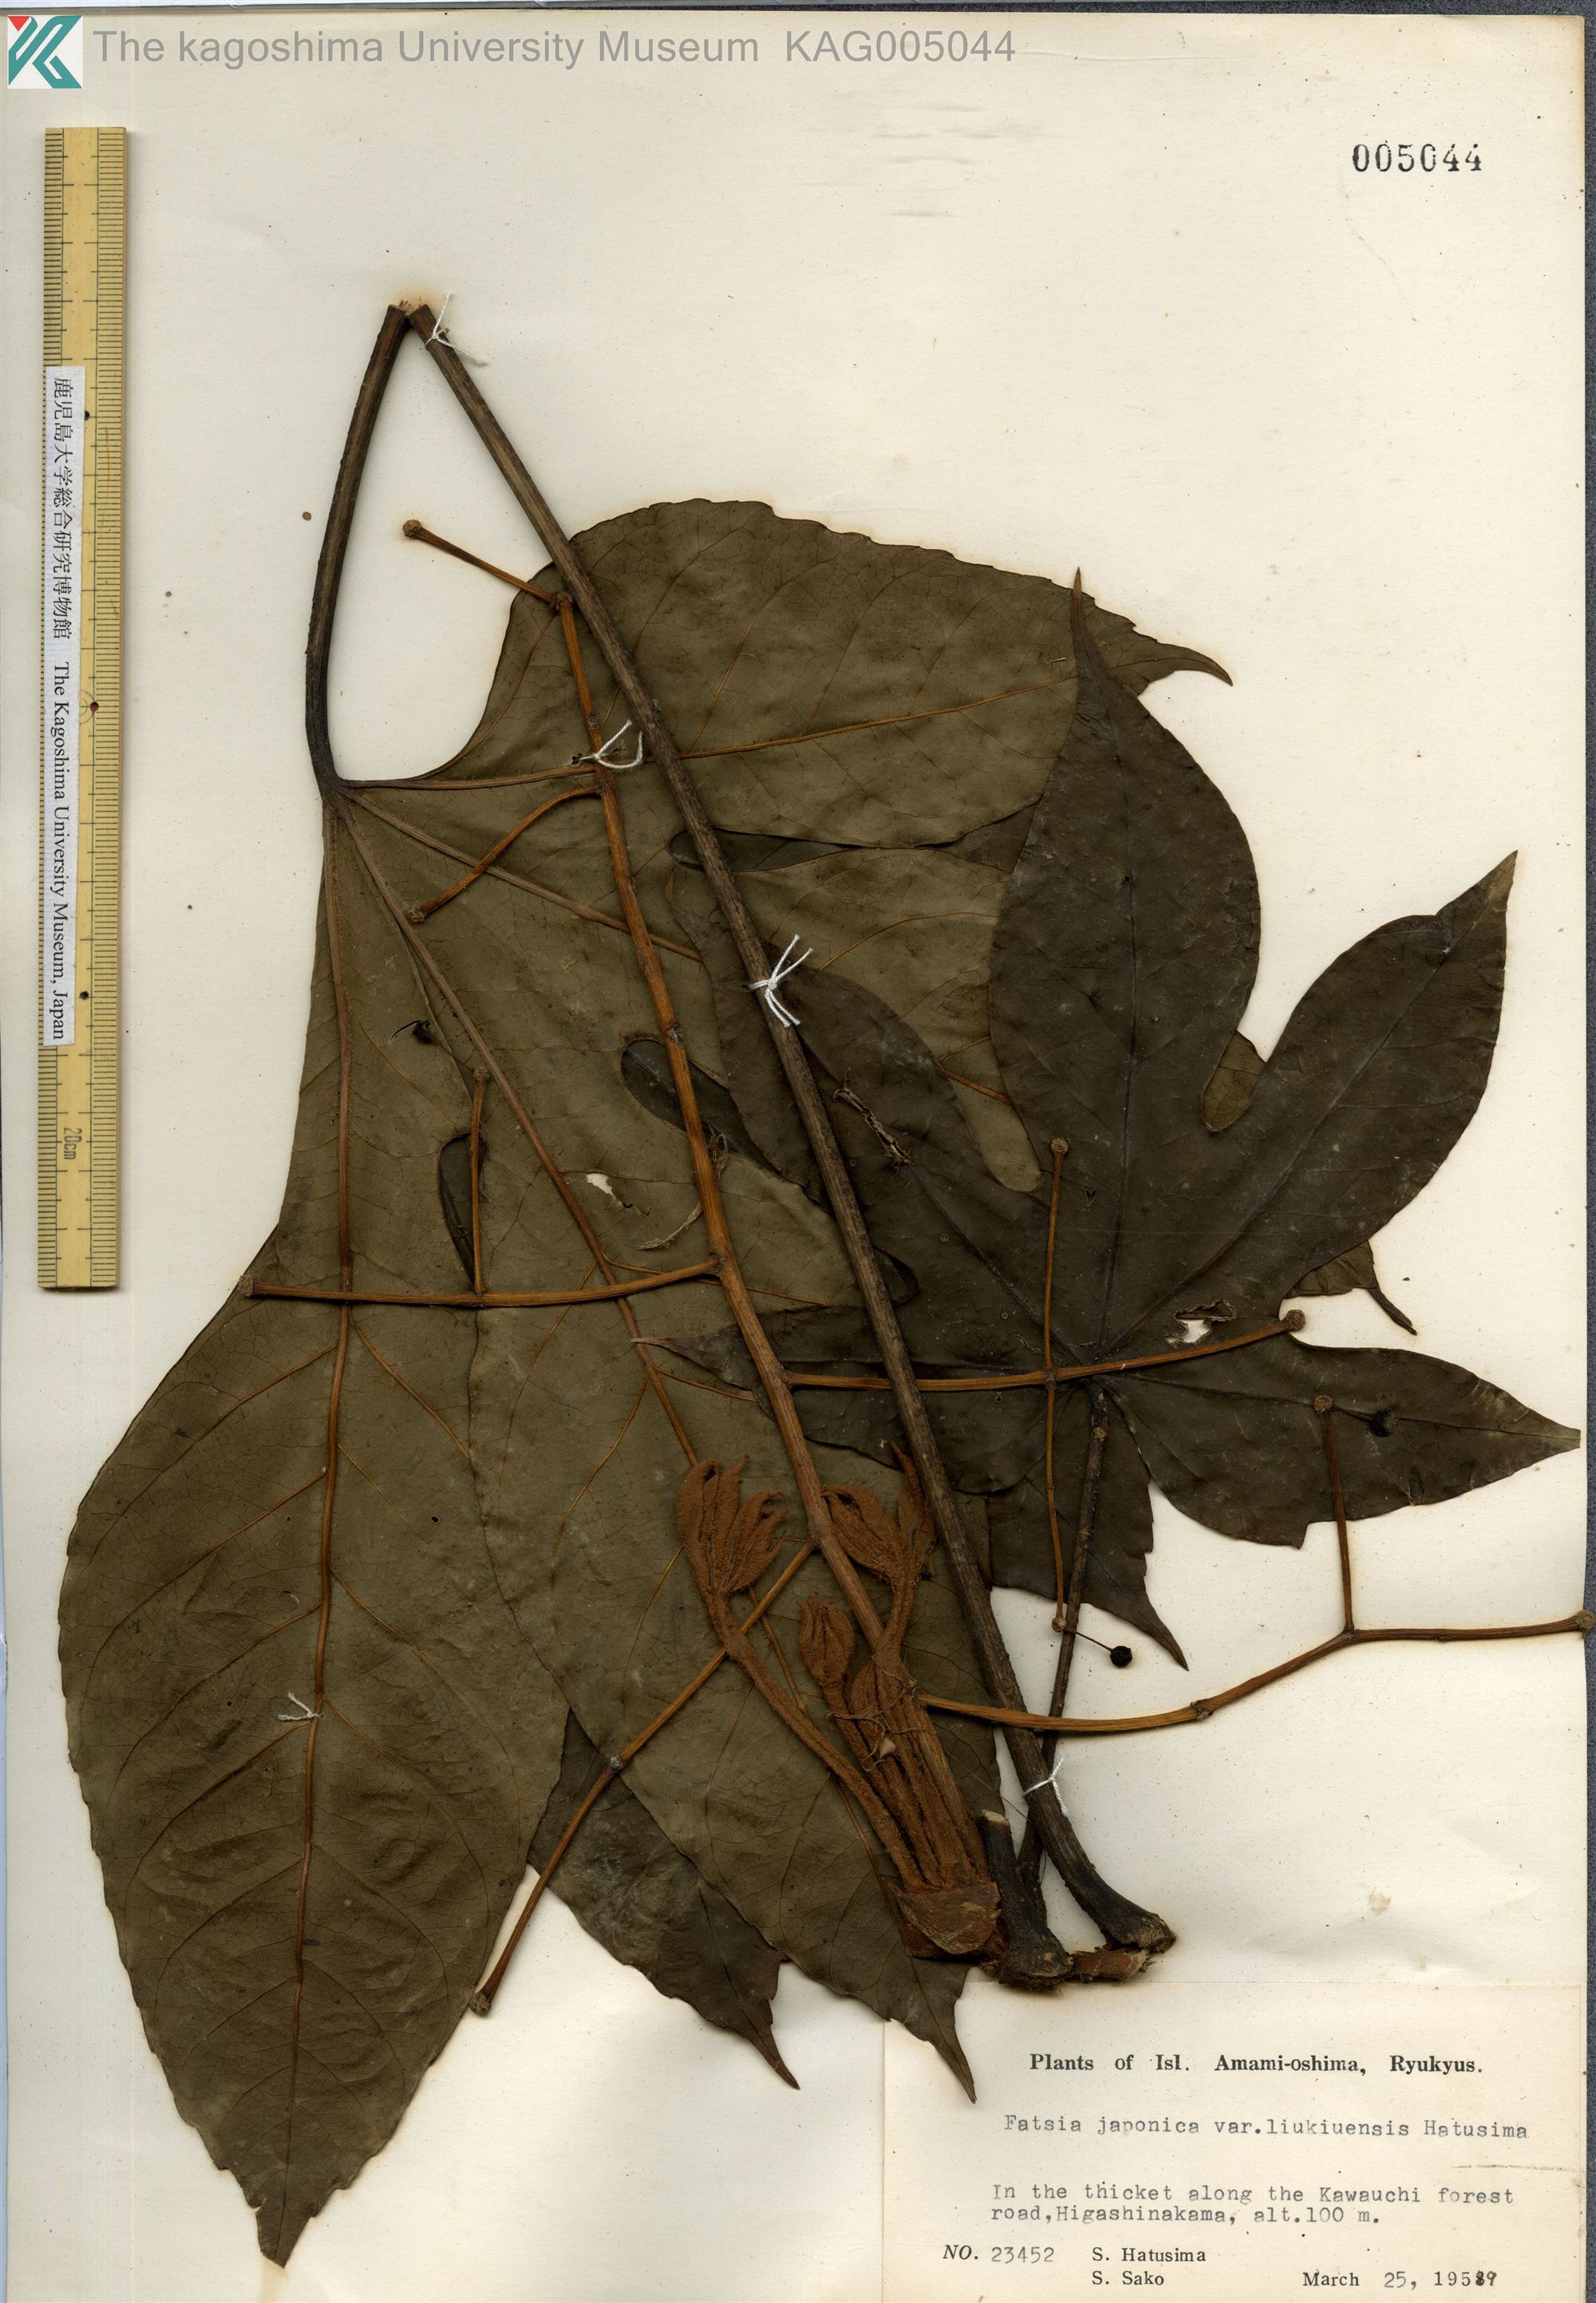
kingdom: Plantae
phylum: Tracheophyta
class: Magnoliopsida
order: Apiales
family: Araliaceae
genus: Fatsia
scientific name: Fatsia japonica
